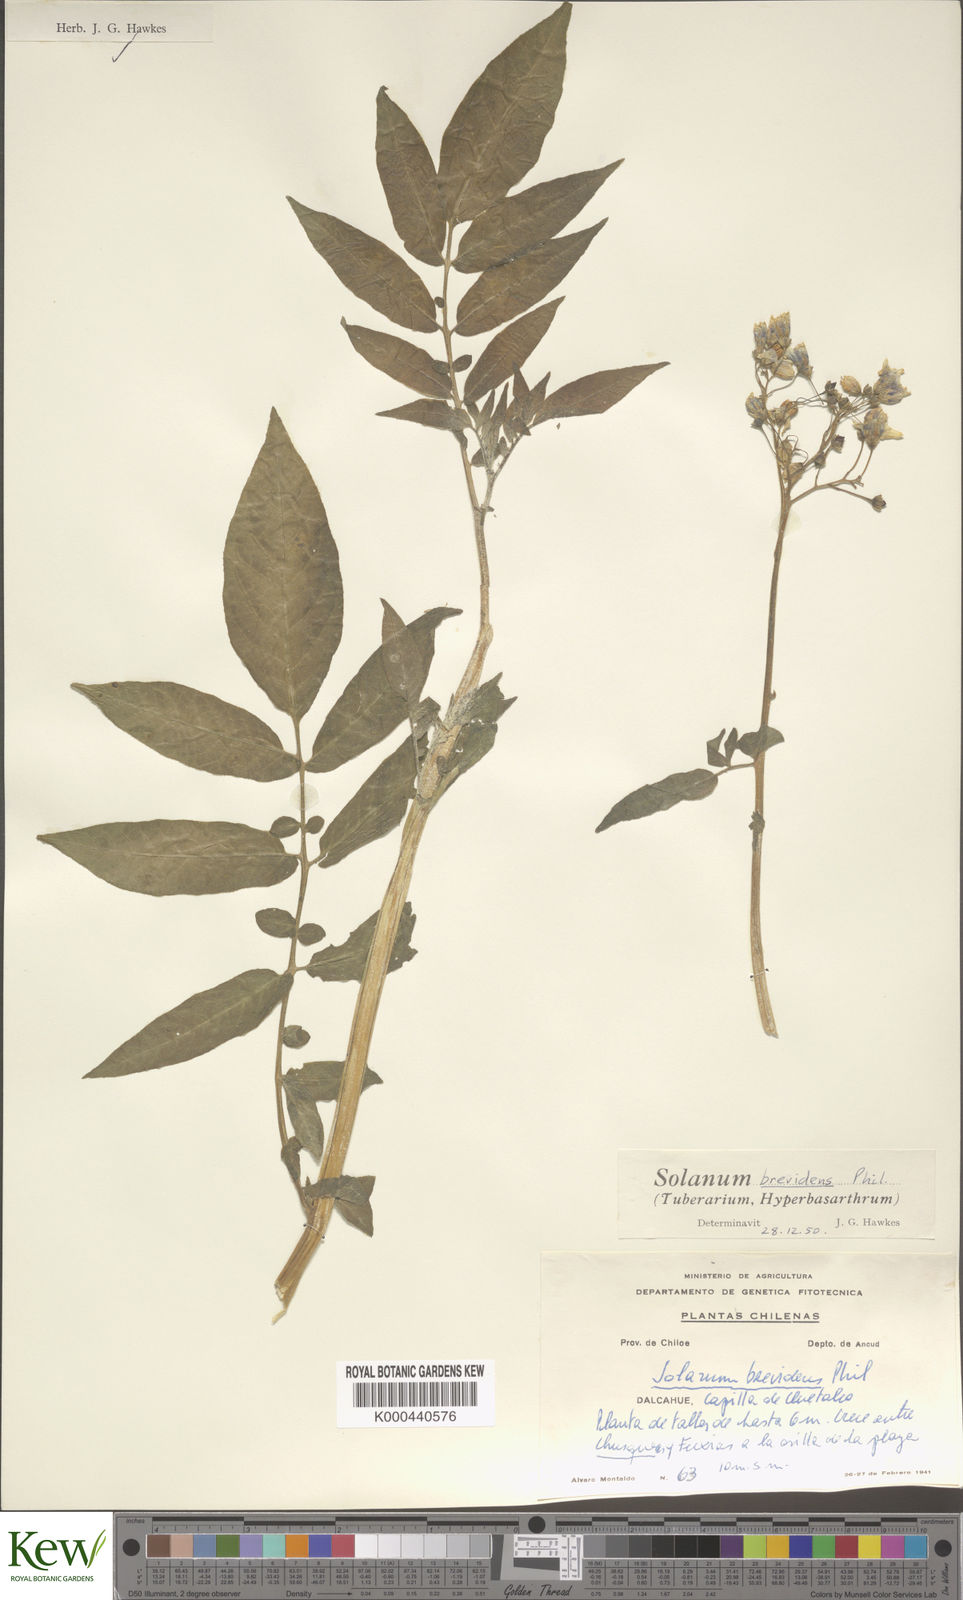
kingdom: Plantae
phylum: Tracheophyta
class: Magnoliopsida
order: Solanales
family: Solanaceae
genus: Solanum
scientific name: Solanum palustre
